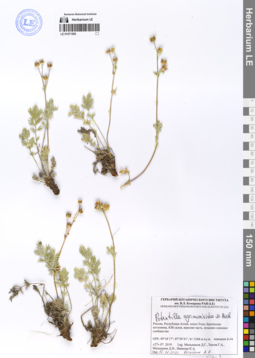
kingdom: Plantae
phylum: Tracheophyta
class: Magnoliopsida
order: Rosales
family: Rosaceae
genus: Potentilla
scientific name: Potentilla agrimonioides
